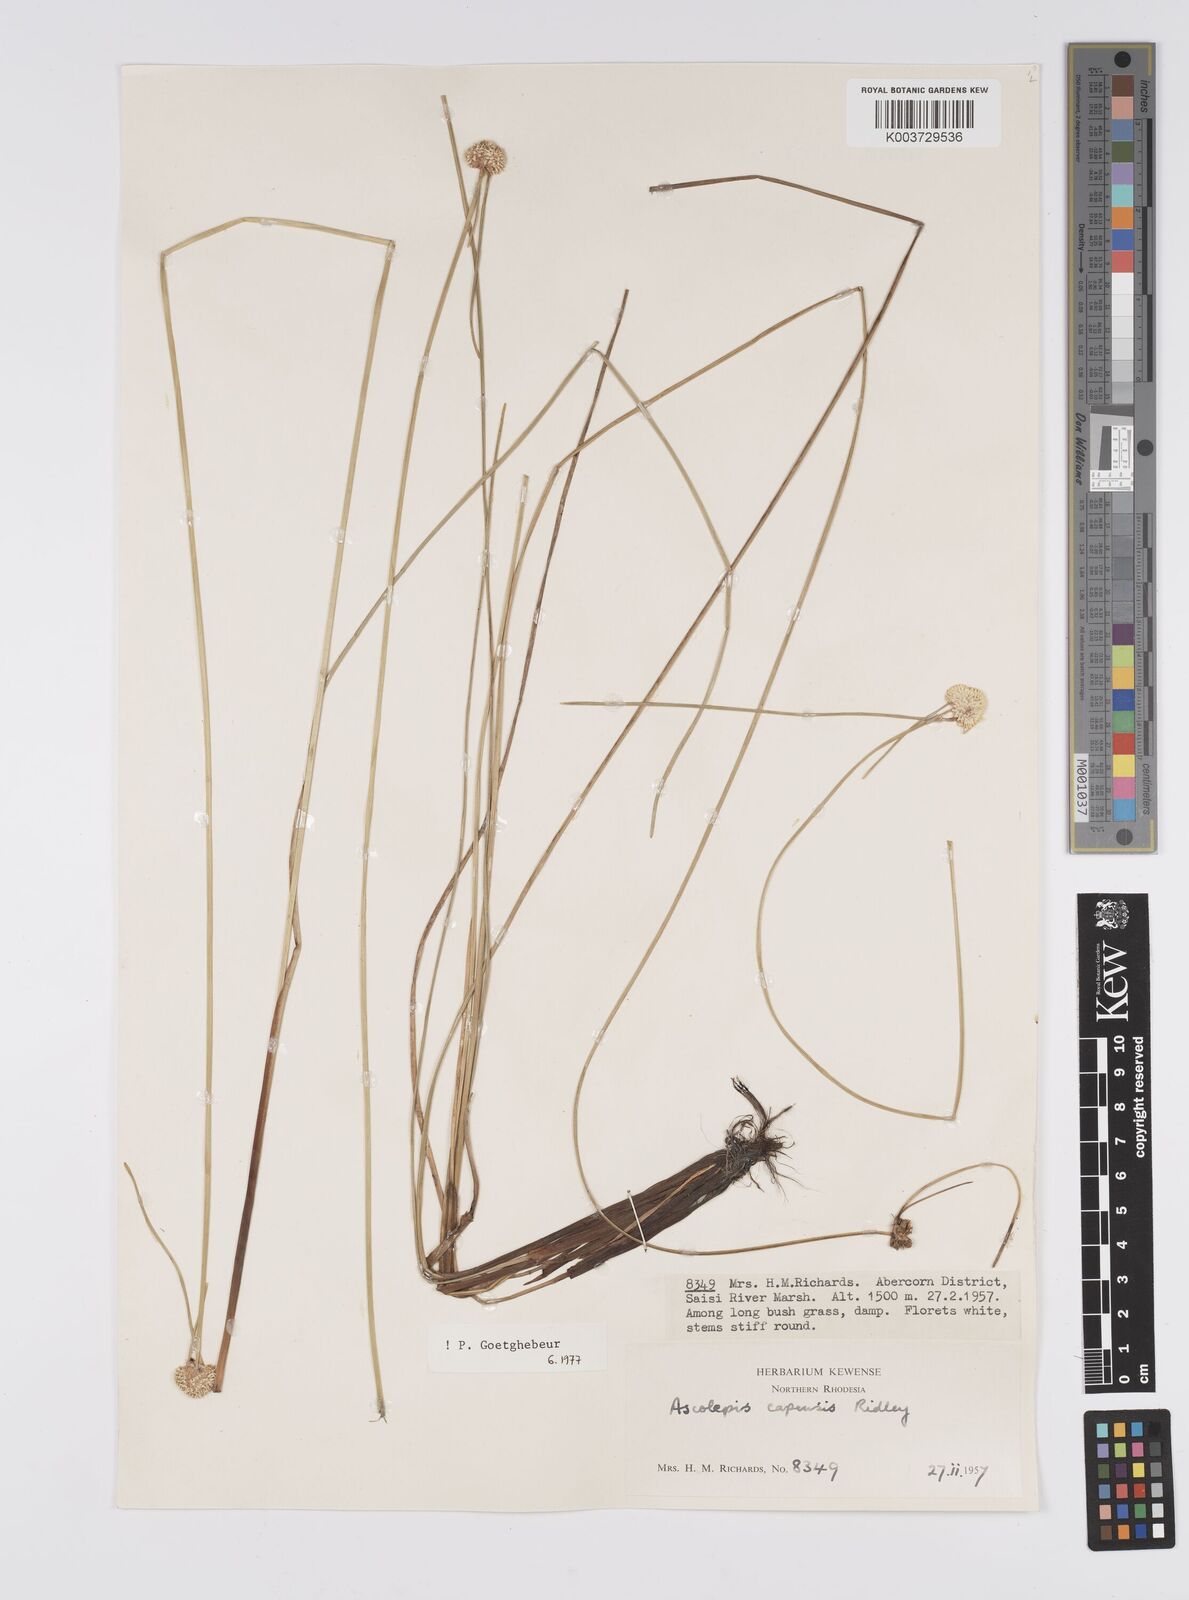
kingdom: Plantae
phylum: Tracheophyta
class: Liliopsida
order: Poales
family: Cyperaceae
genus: Cyperus
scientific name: Cyperus
